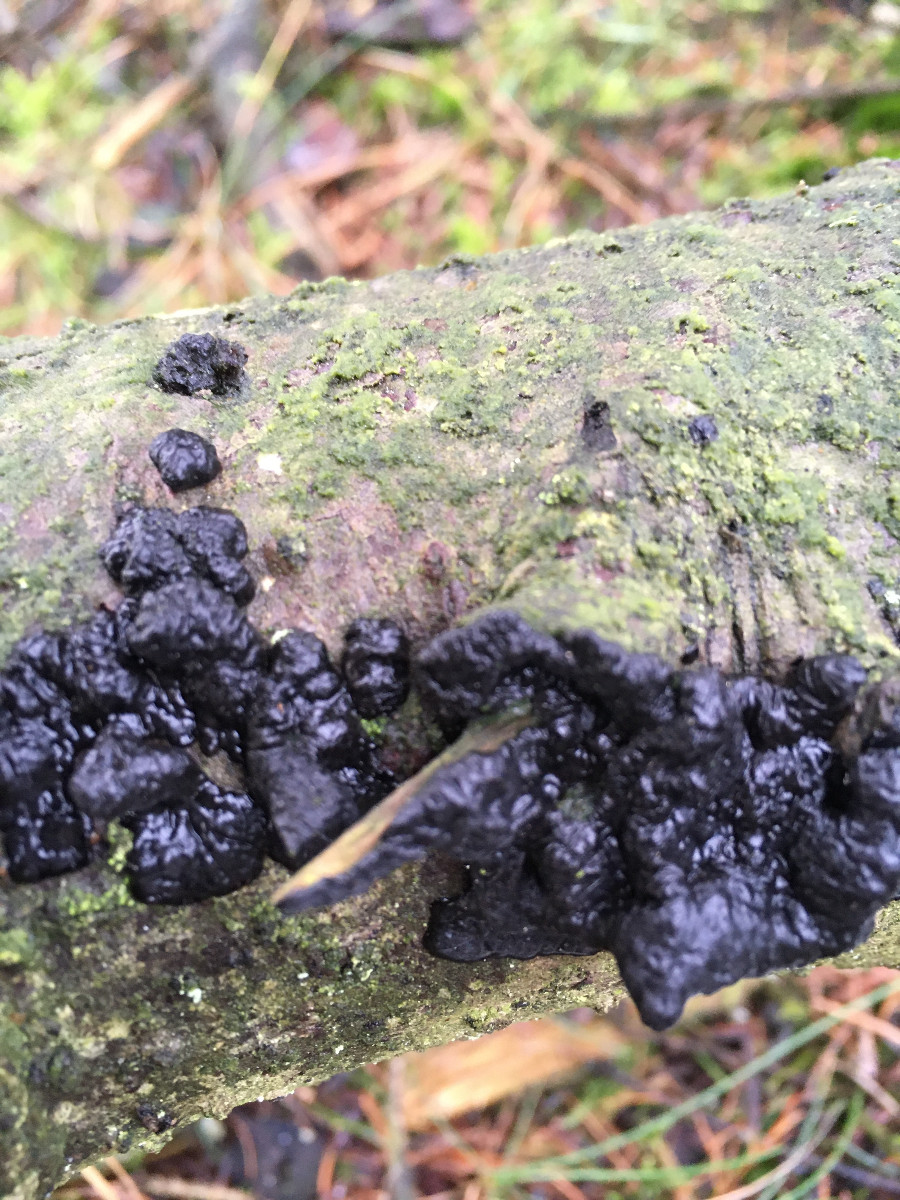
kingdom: Fungi
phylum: Basidiomycota
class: Agaricomycetes
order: Auriculariales
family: Auriculariaceae
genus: Exidia
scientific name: Exidia pithya
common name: gran-bævretop
